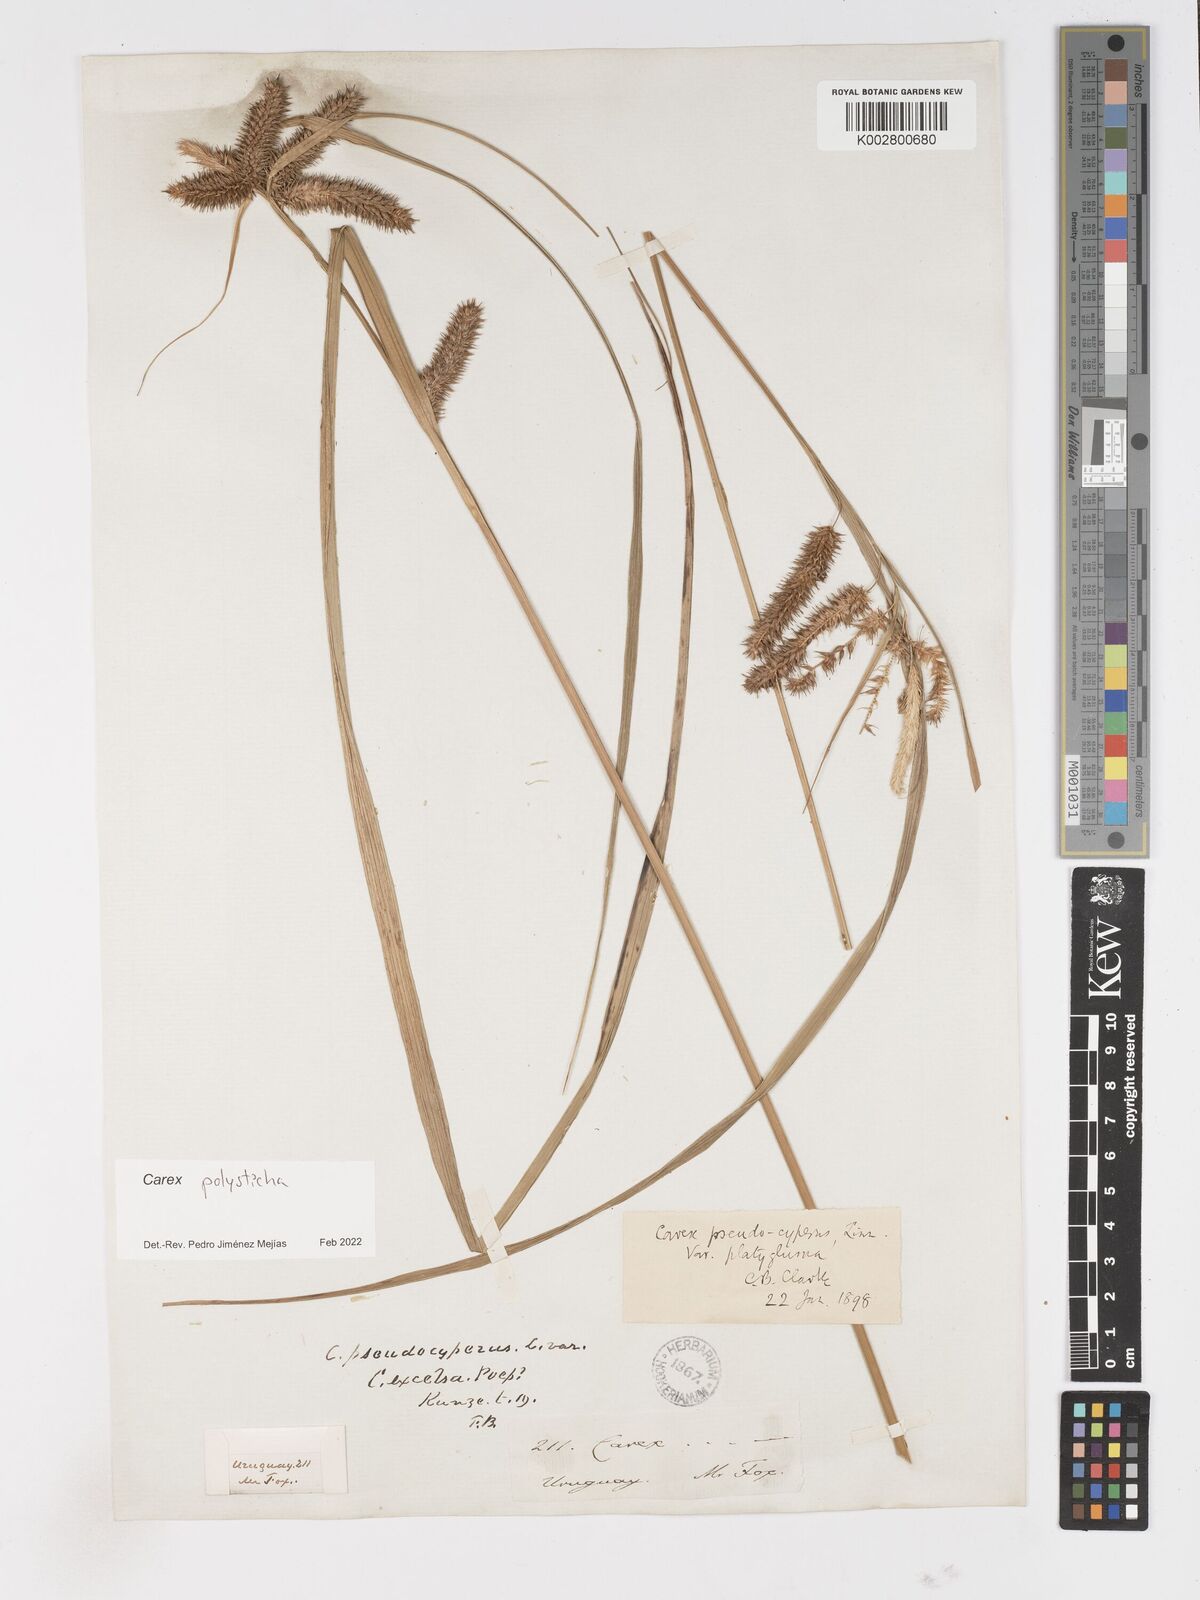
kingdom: Plantae
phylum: Tracheophyta
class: Liliopsida
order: Poales
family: Cyperaceae
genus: Carex
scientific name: Carex excelsa
